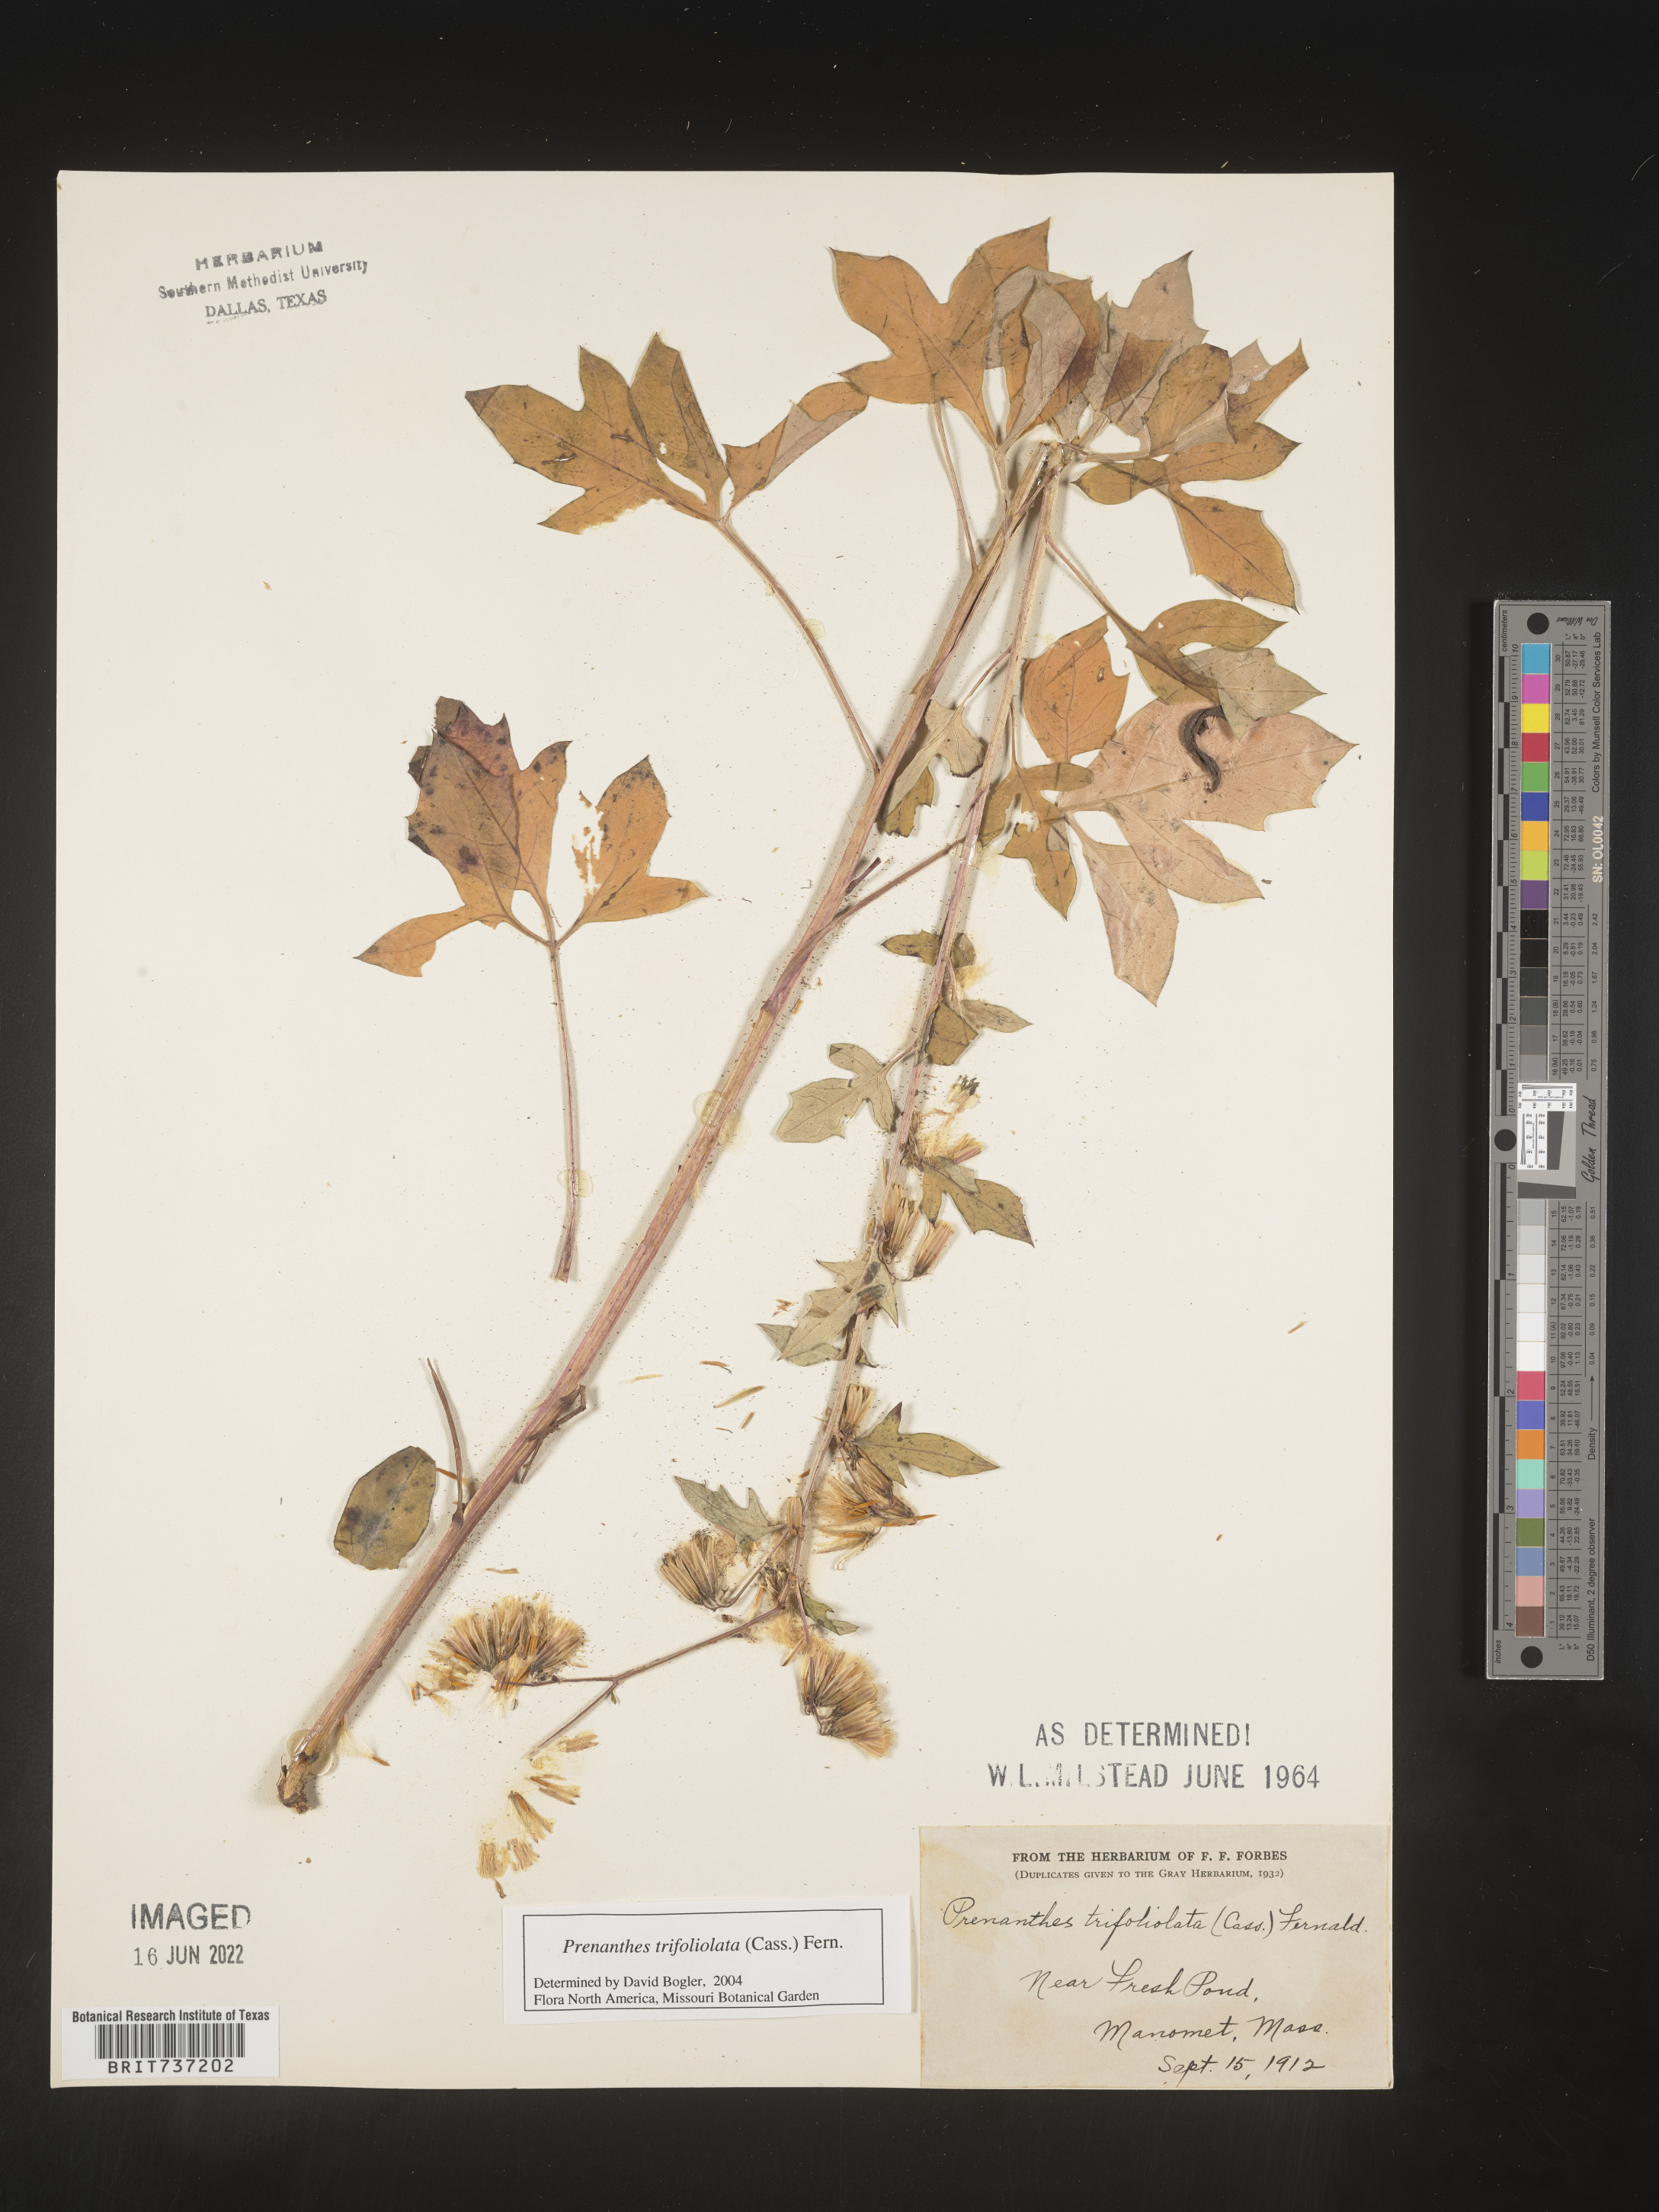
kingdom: Plantae
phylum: Tracheophyta
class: Magnoliopsida
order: Asterales
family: Asteraceae
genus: Nabalus
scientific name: Nabalus trifoliolatus
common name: Gall-of-the-earth
